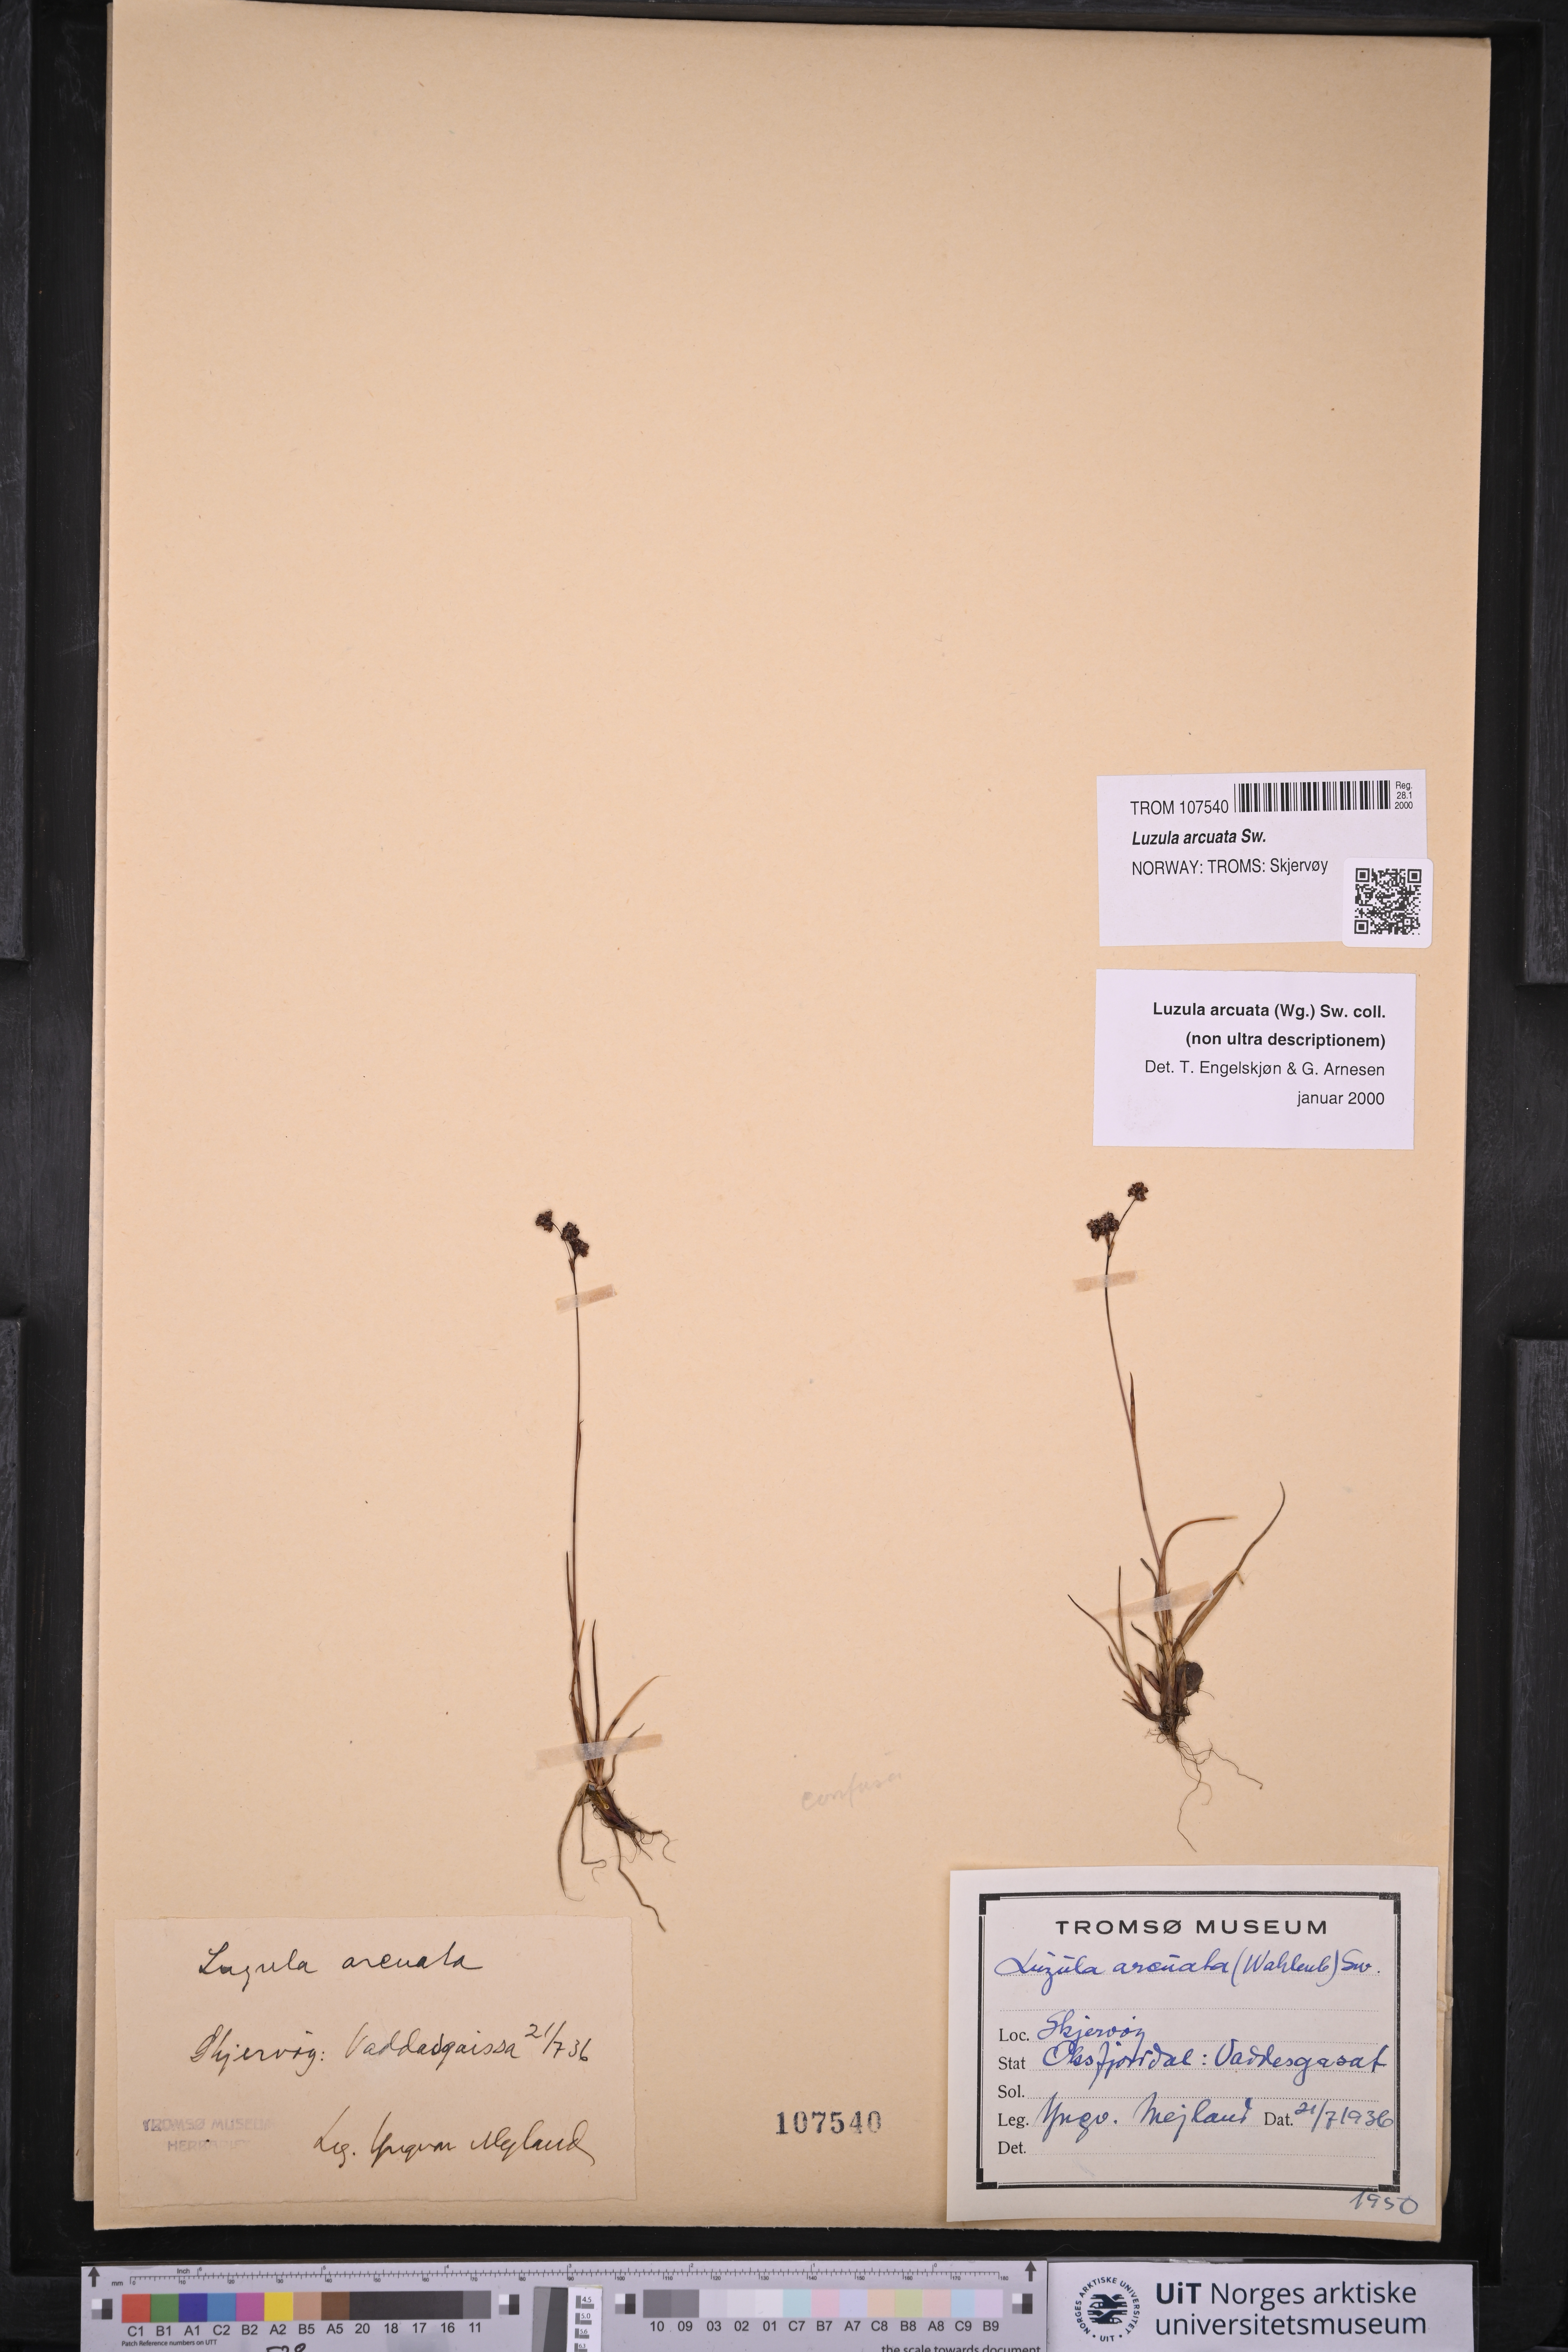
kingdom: Plantae
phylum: Tracheophyta
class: Liliopsida
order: Poales
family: Juncaceae
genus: Luzula
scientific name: Luzula arcuata
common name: Curved wood-rush
